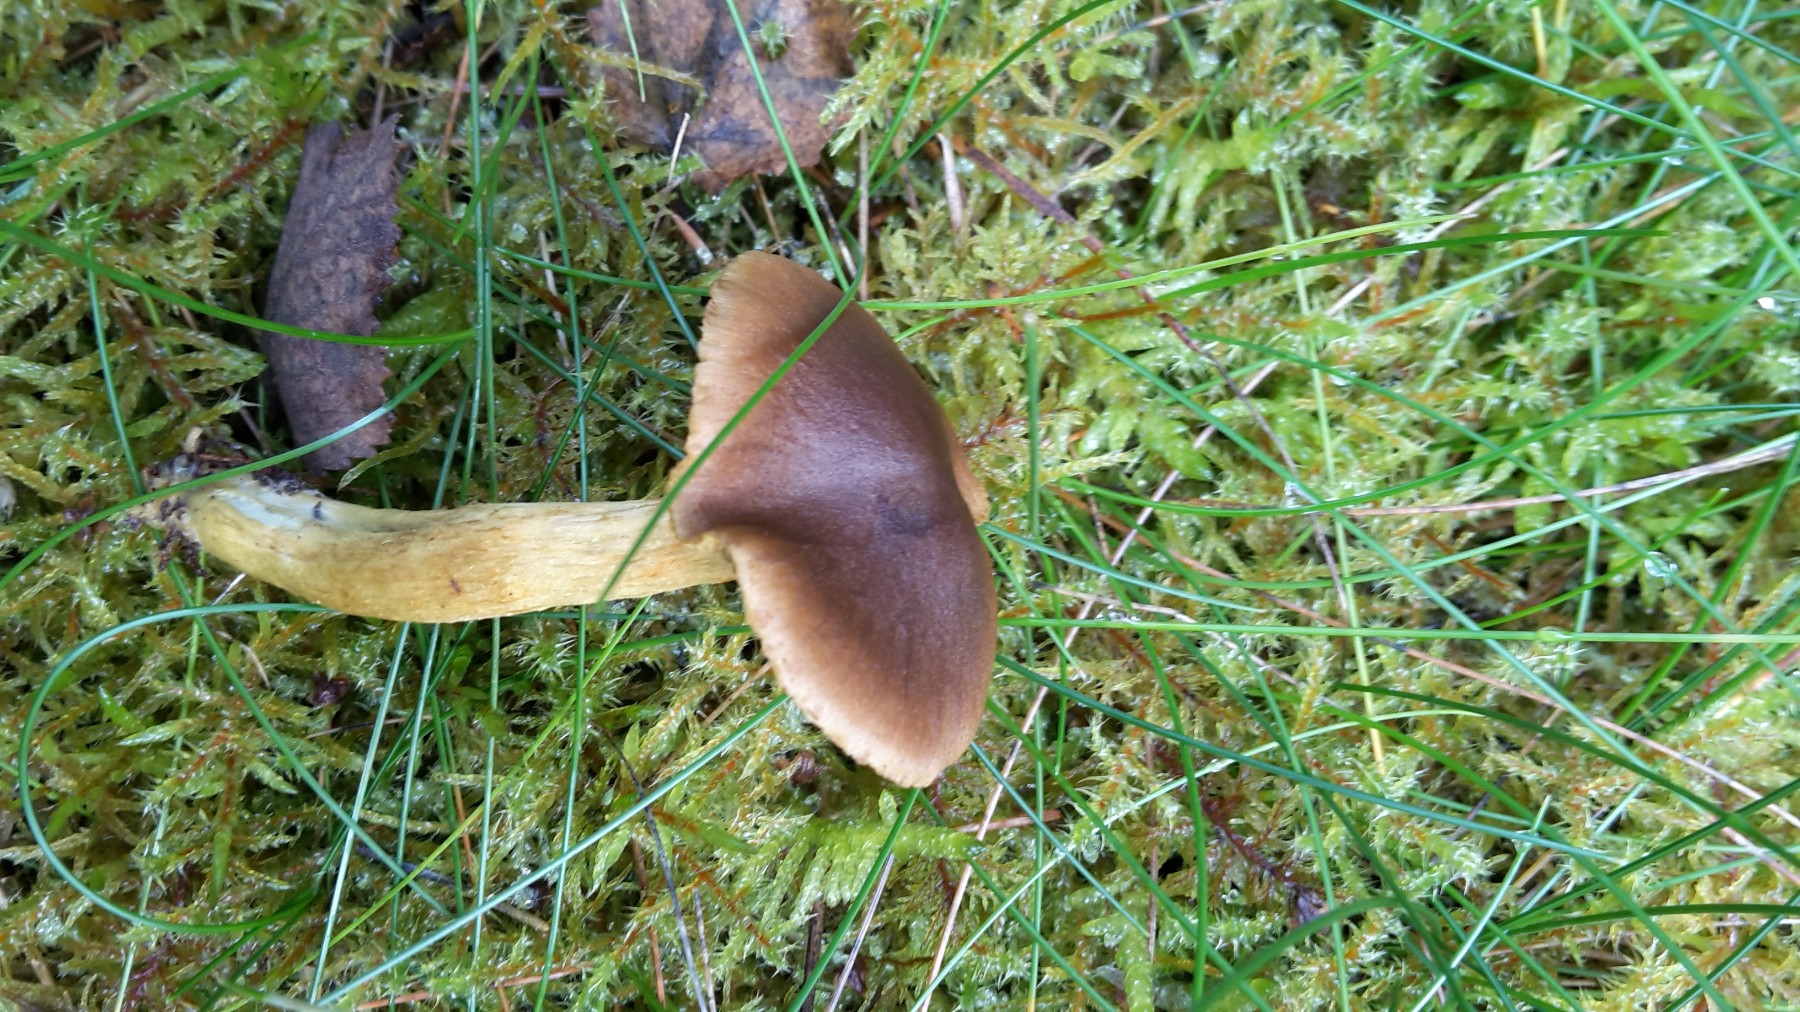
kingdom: Fungi
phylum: Basidiomycota
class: Agaricomycetes
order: Agaricales
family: Cortinariaceae
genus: Cortinarius
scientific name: Cortinarius
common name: gulbladet slørhat
